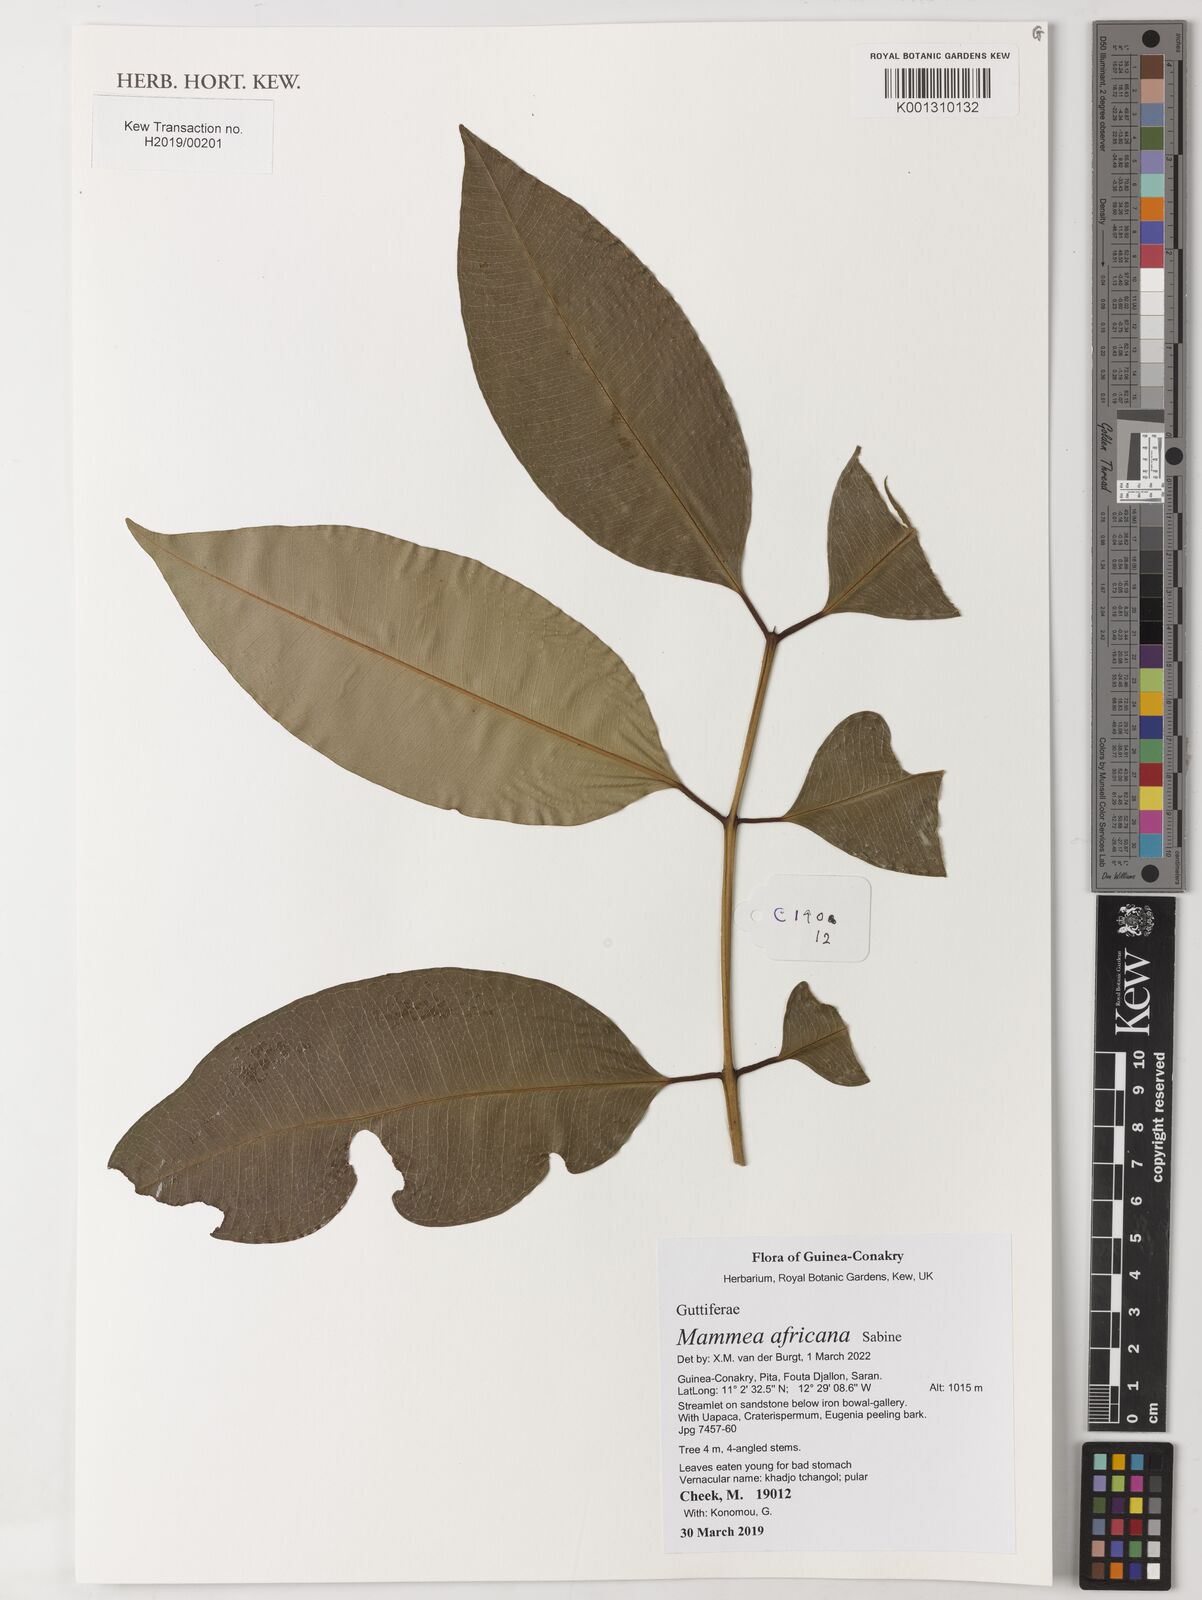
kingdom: Plantae
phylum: Tracheophyta
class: Magnoliopsida
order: Malpighiales
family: Calophyllaceae
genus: Mammea
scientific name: Mammea africana
